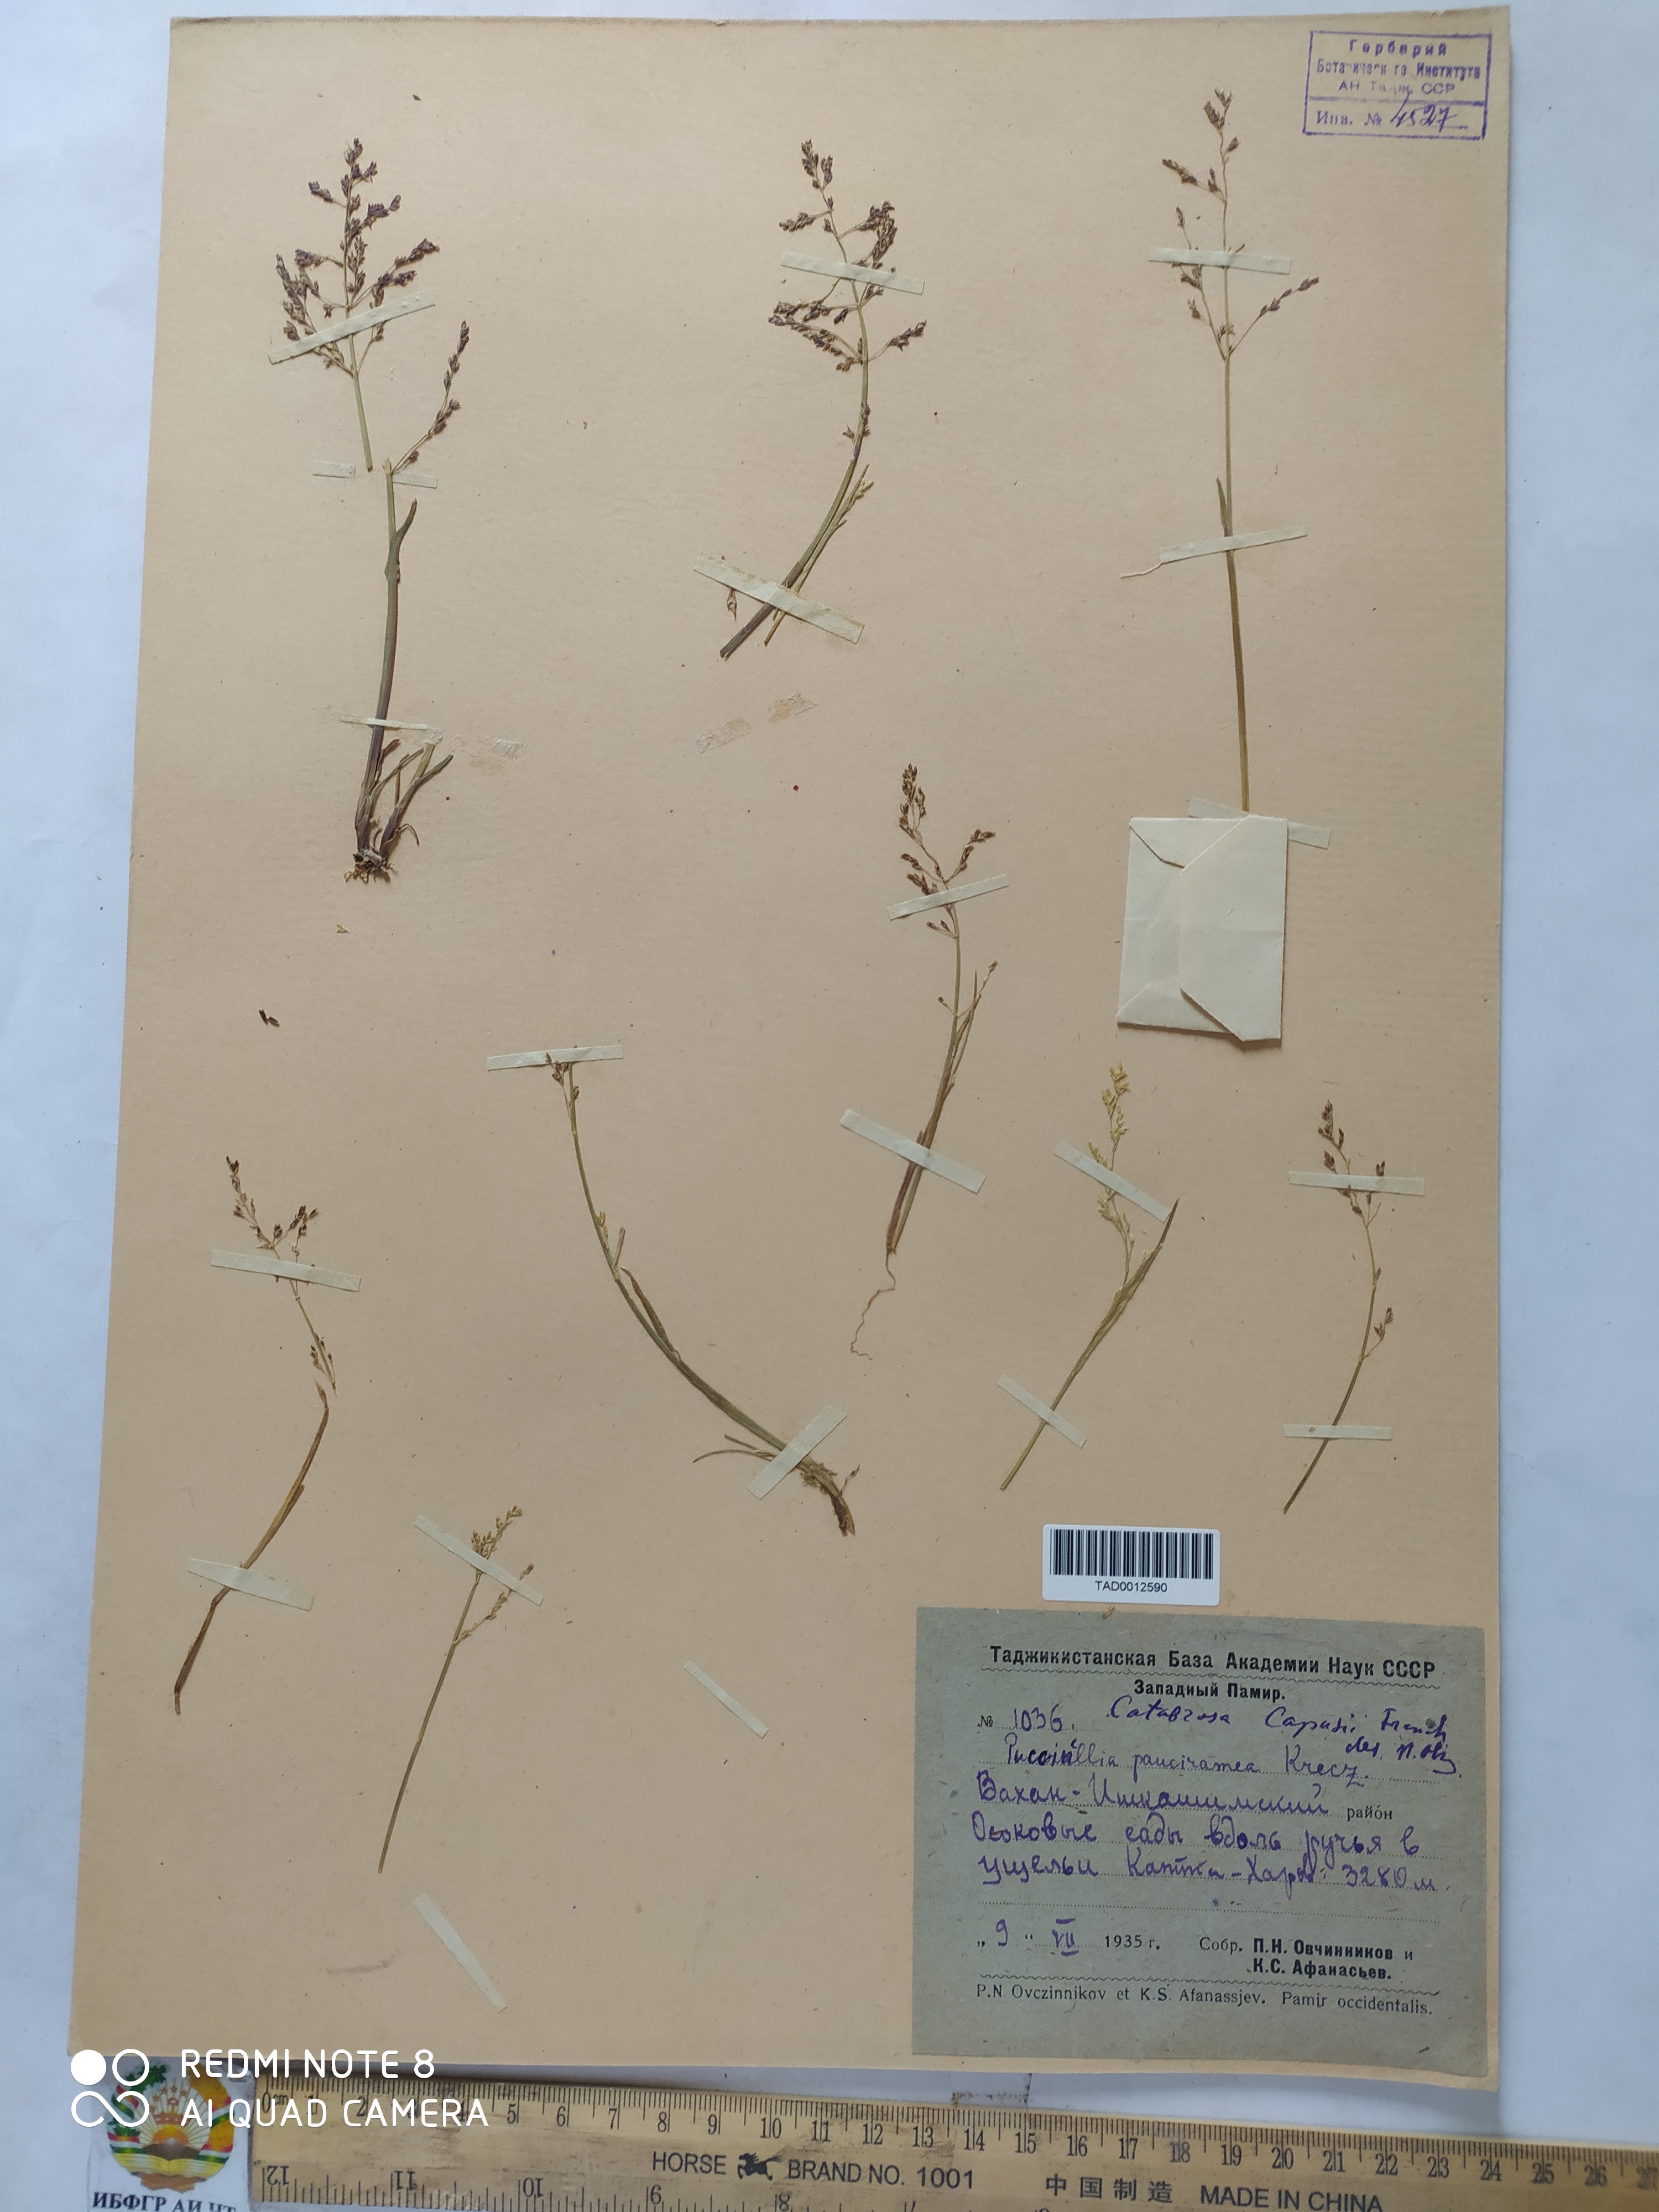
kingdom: Plantae
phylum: Tracheophyta
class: Liliopsida
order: Poales
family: Poaceae
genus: Catabrosa
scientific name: Catabrosa aquatica
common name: Whorl-grass
